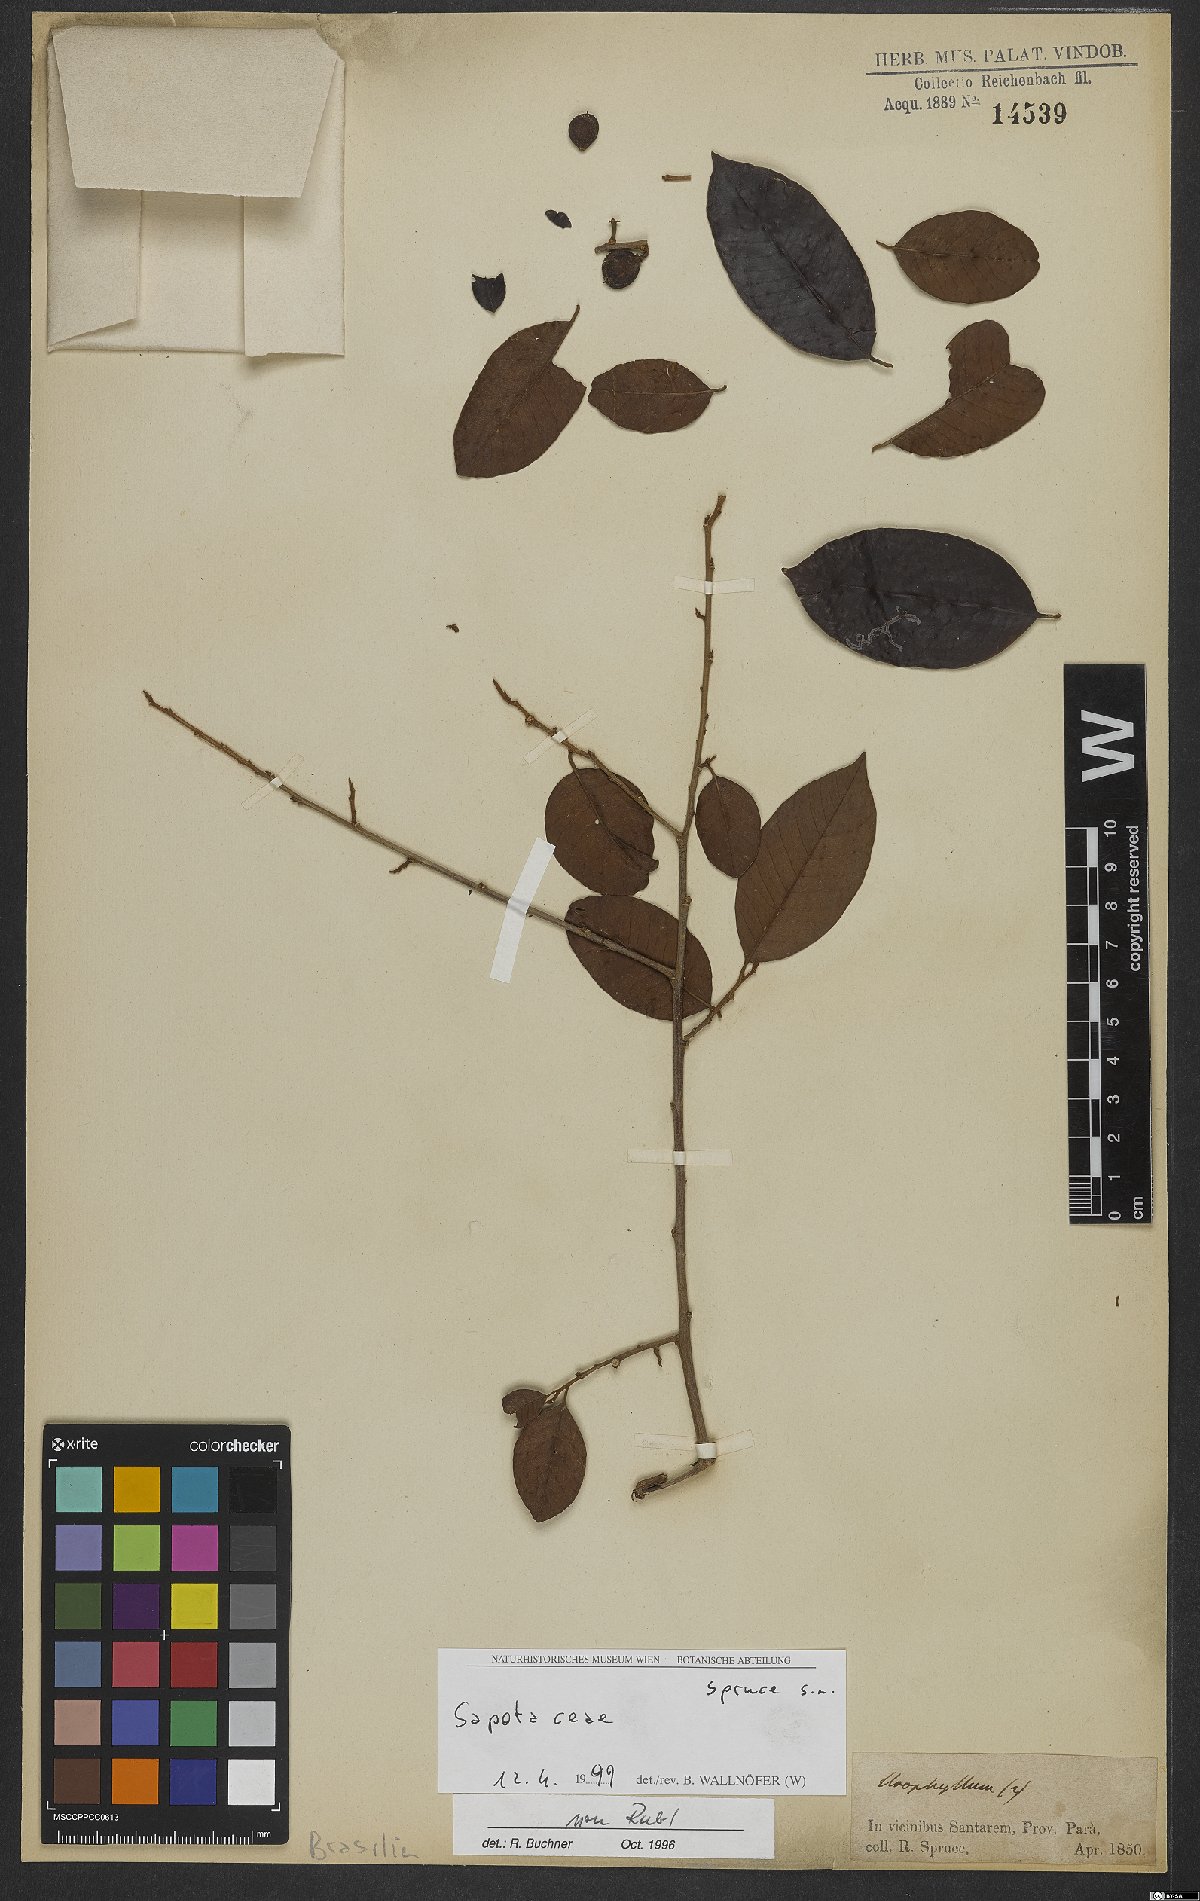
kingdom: Plantae
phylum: Tracheophyta
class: Magnoliopsida
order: Ericales
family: Sapotaceae
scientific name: Sapotaceae
